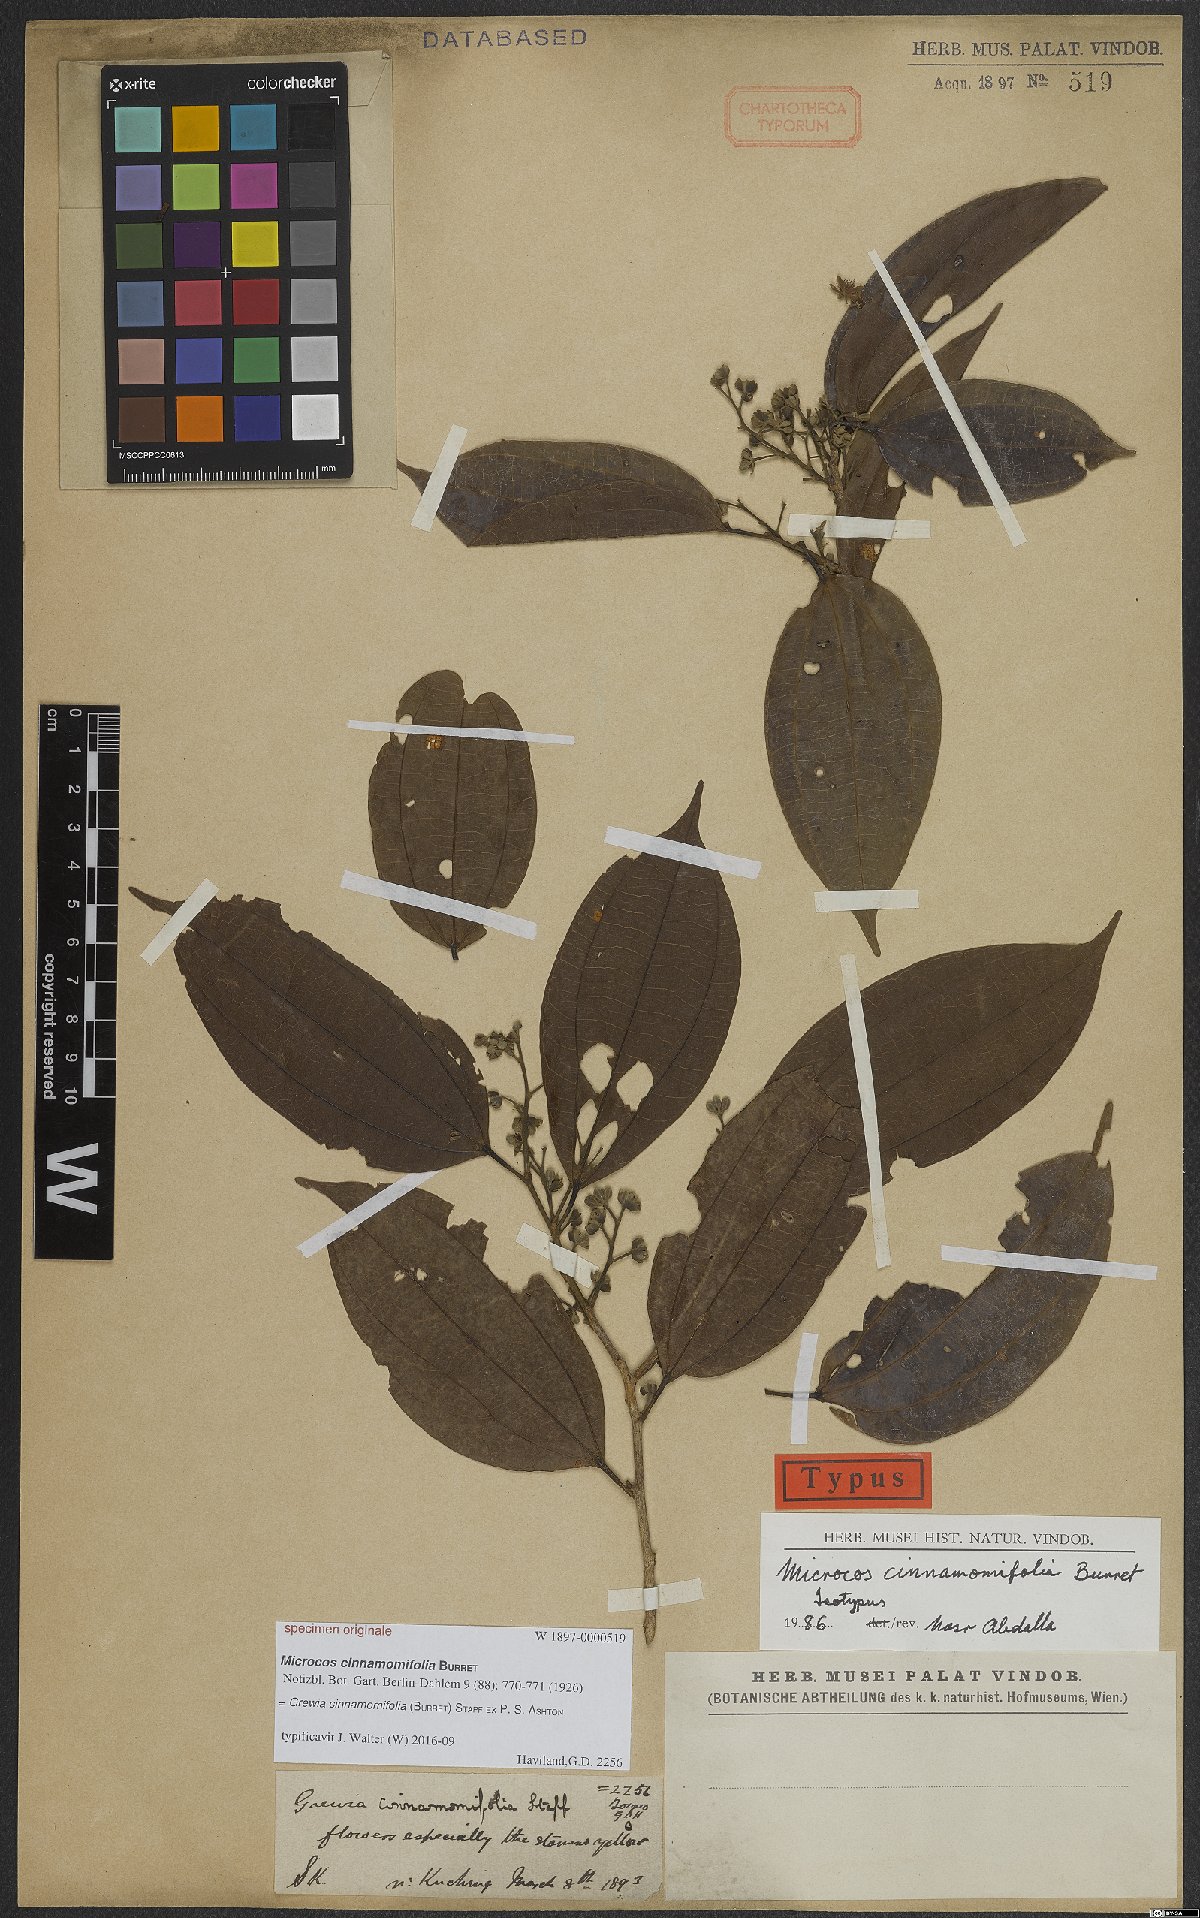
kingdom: Plantae
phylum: Tracheophyta
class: Magnoliopsida
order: Malvales
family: Malvaceae
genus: Microcos
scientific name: Microcos cinnamomifolia
